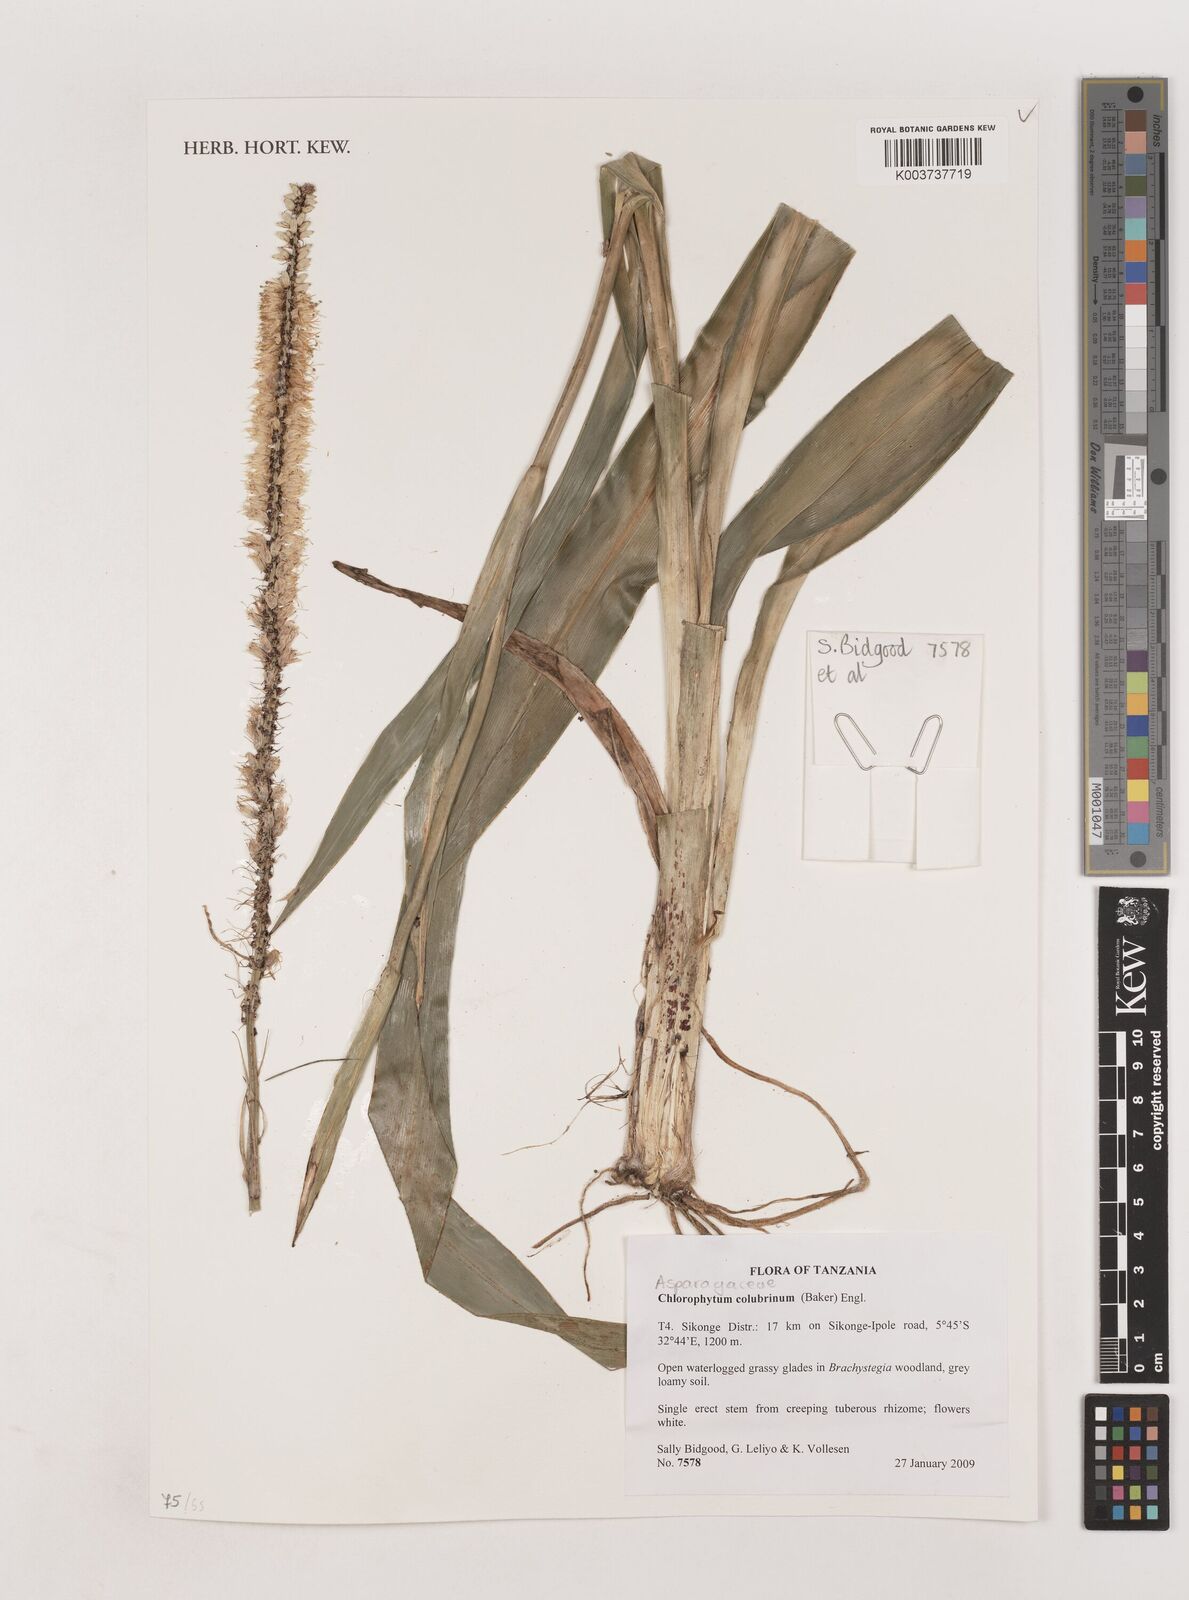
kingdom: Plantae
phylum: Tracheophyta
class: Liliopsida
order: Asparagales
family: Asparagaceae
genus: Chlorophytum
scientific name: Chlorophytum colubrinum
